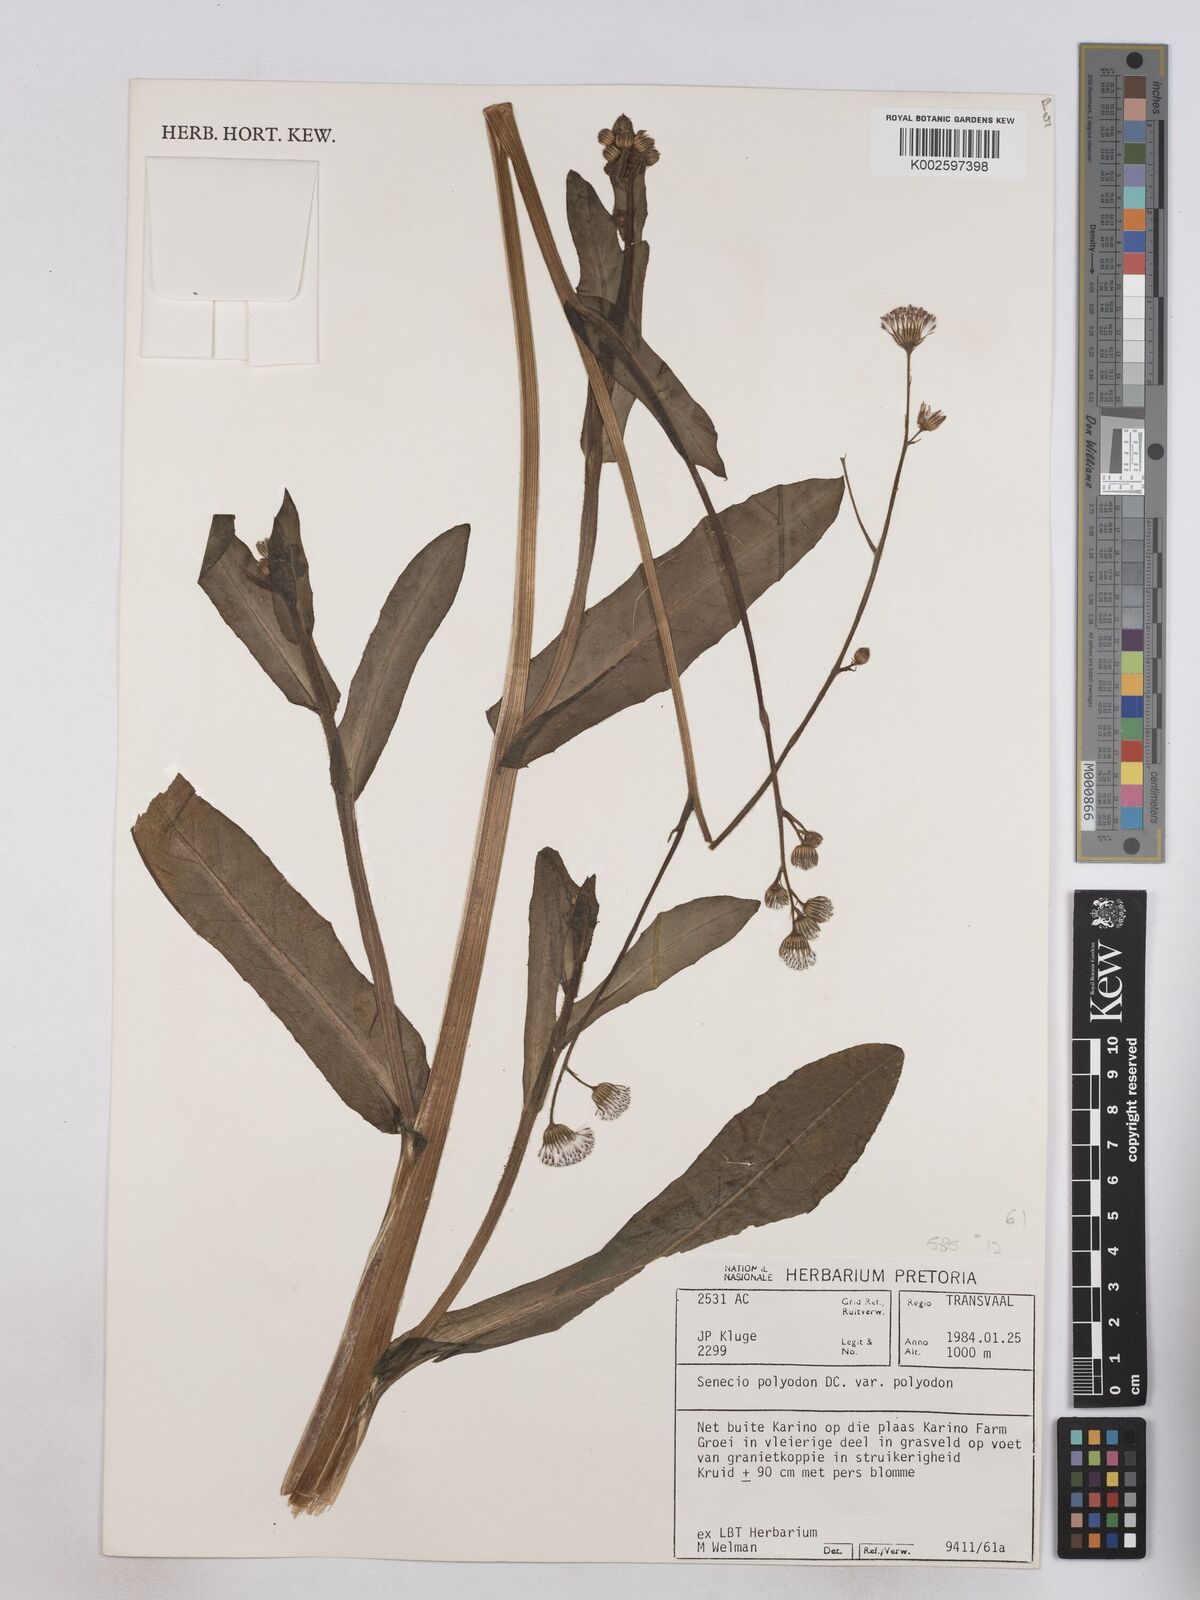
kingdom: Plantae
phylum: Tracheophyta
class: Magnoliopsida
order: Asterales
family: Asteraceae
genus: Senecio
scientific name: Senecio polyodon
